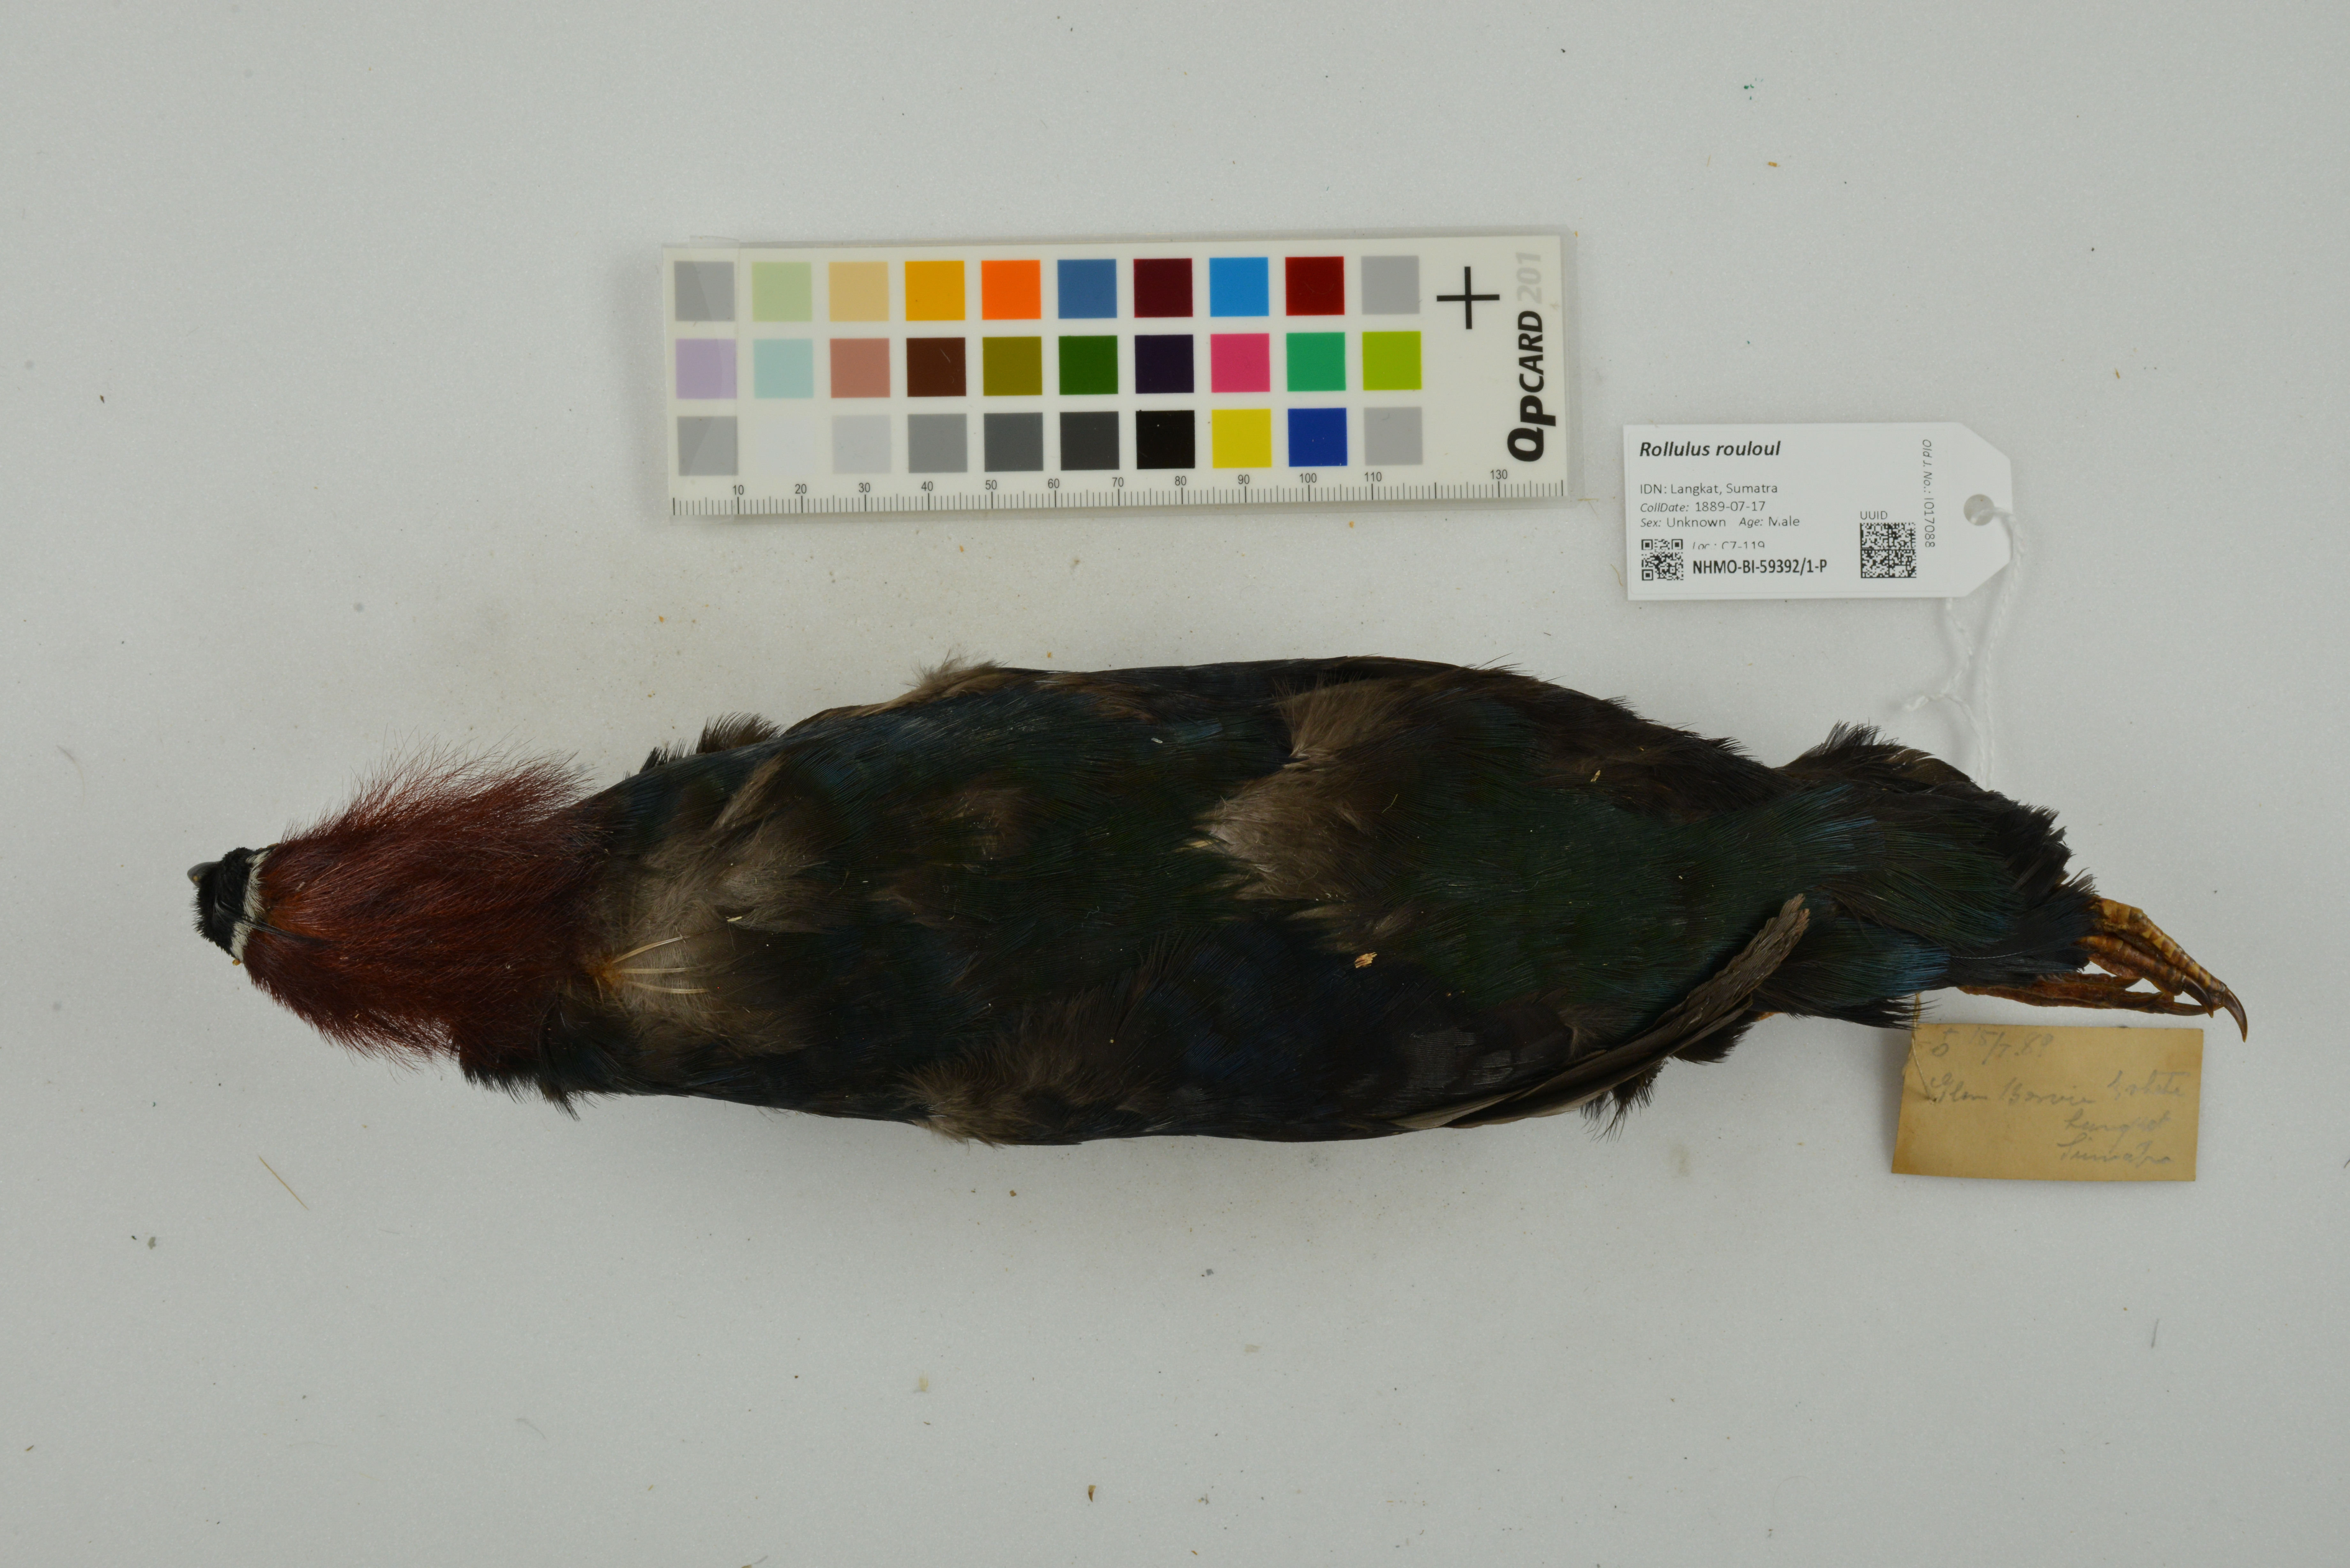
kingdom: Animalia
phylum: Chordata
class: Aves
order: Galliformes
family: Phasianidae
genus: Rollulus
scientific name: Rollulus rouloul
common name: Crested partridge
